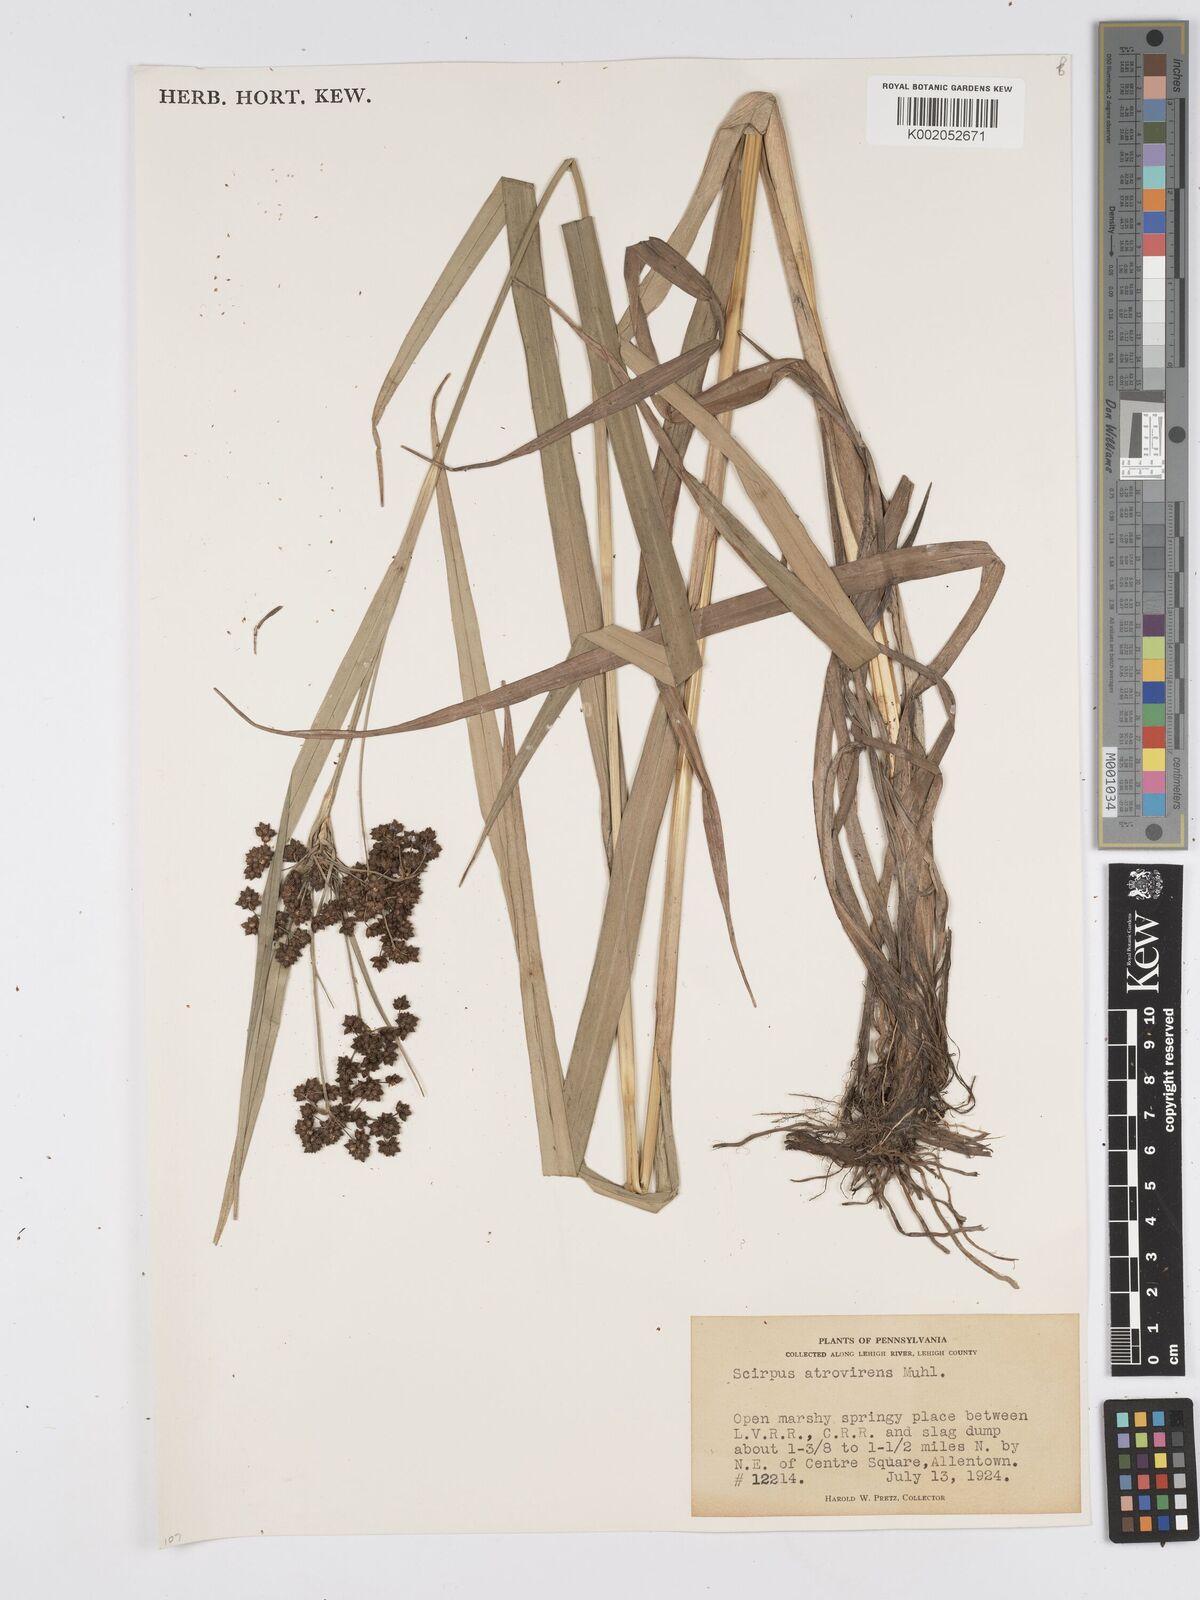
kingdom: Plantae
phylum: Tracheophyta
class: Liliopsida
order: Poales
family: Cyperaceae
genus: Scirpus
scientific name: Scirpus atrovirens
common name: Black bulrush
